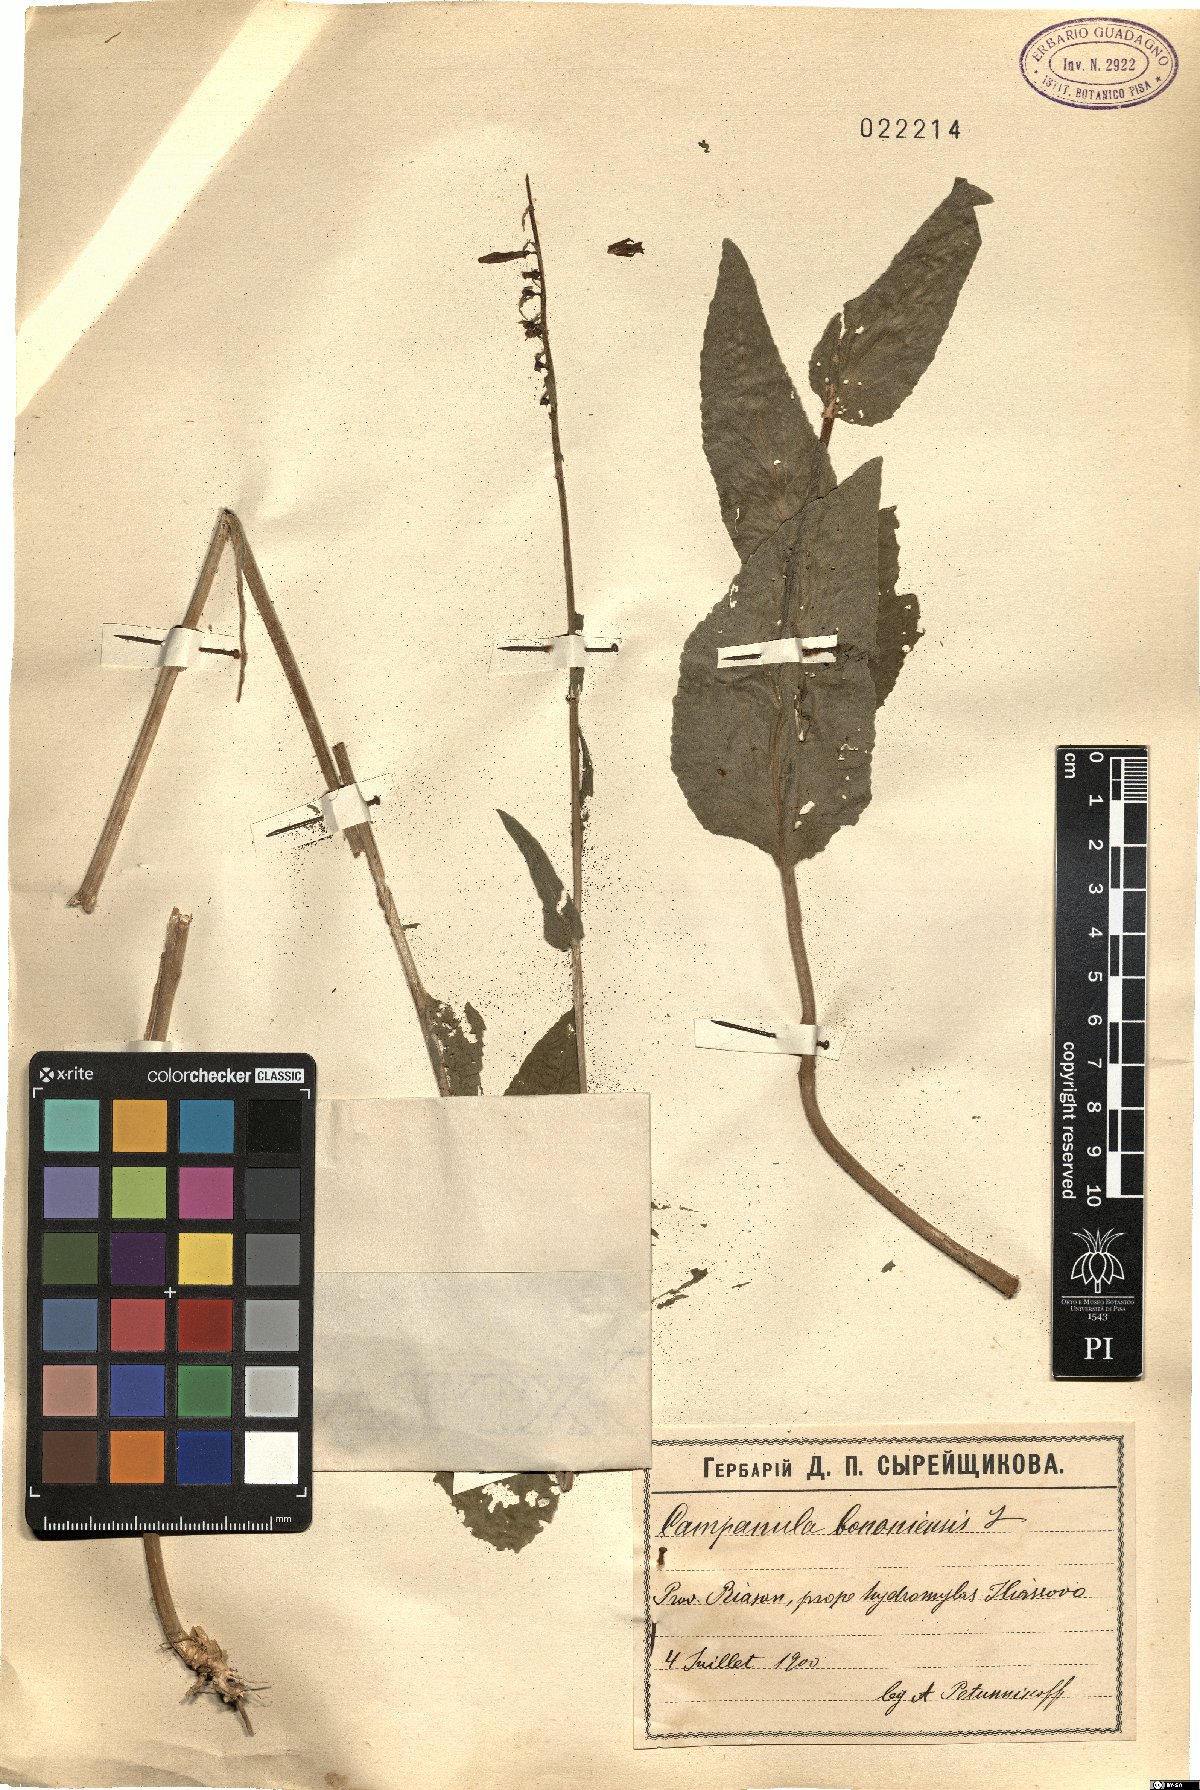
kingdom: Plantae
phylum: Tracheophyta
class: Magnoliopsida
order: Asterales
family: Campanulaceae
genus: Campanula
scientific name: Campanula bononiensis
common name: Pale bellflower
